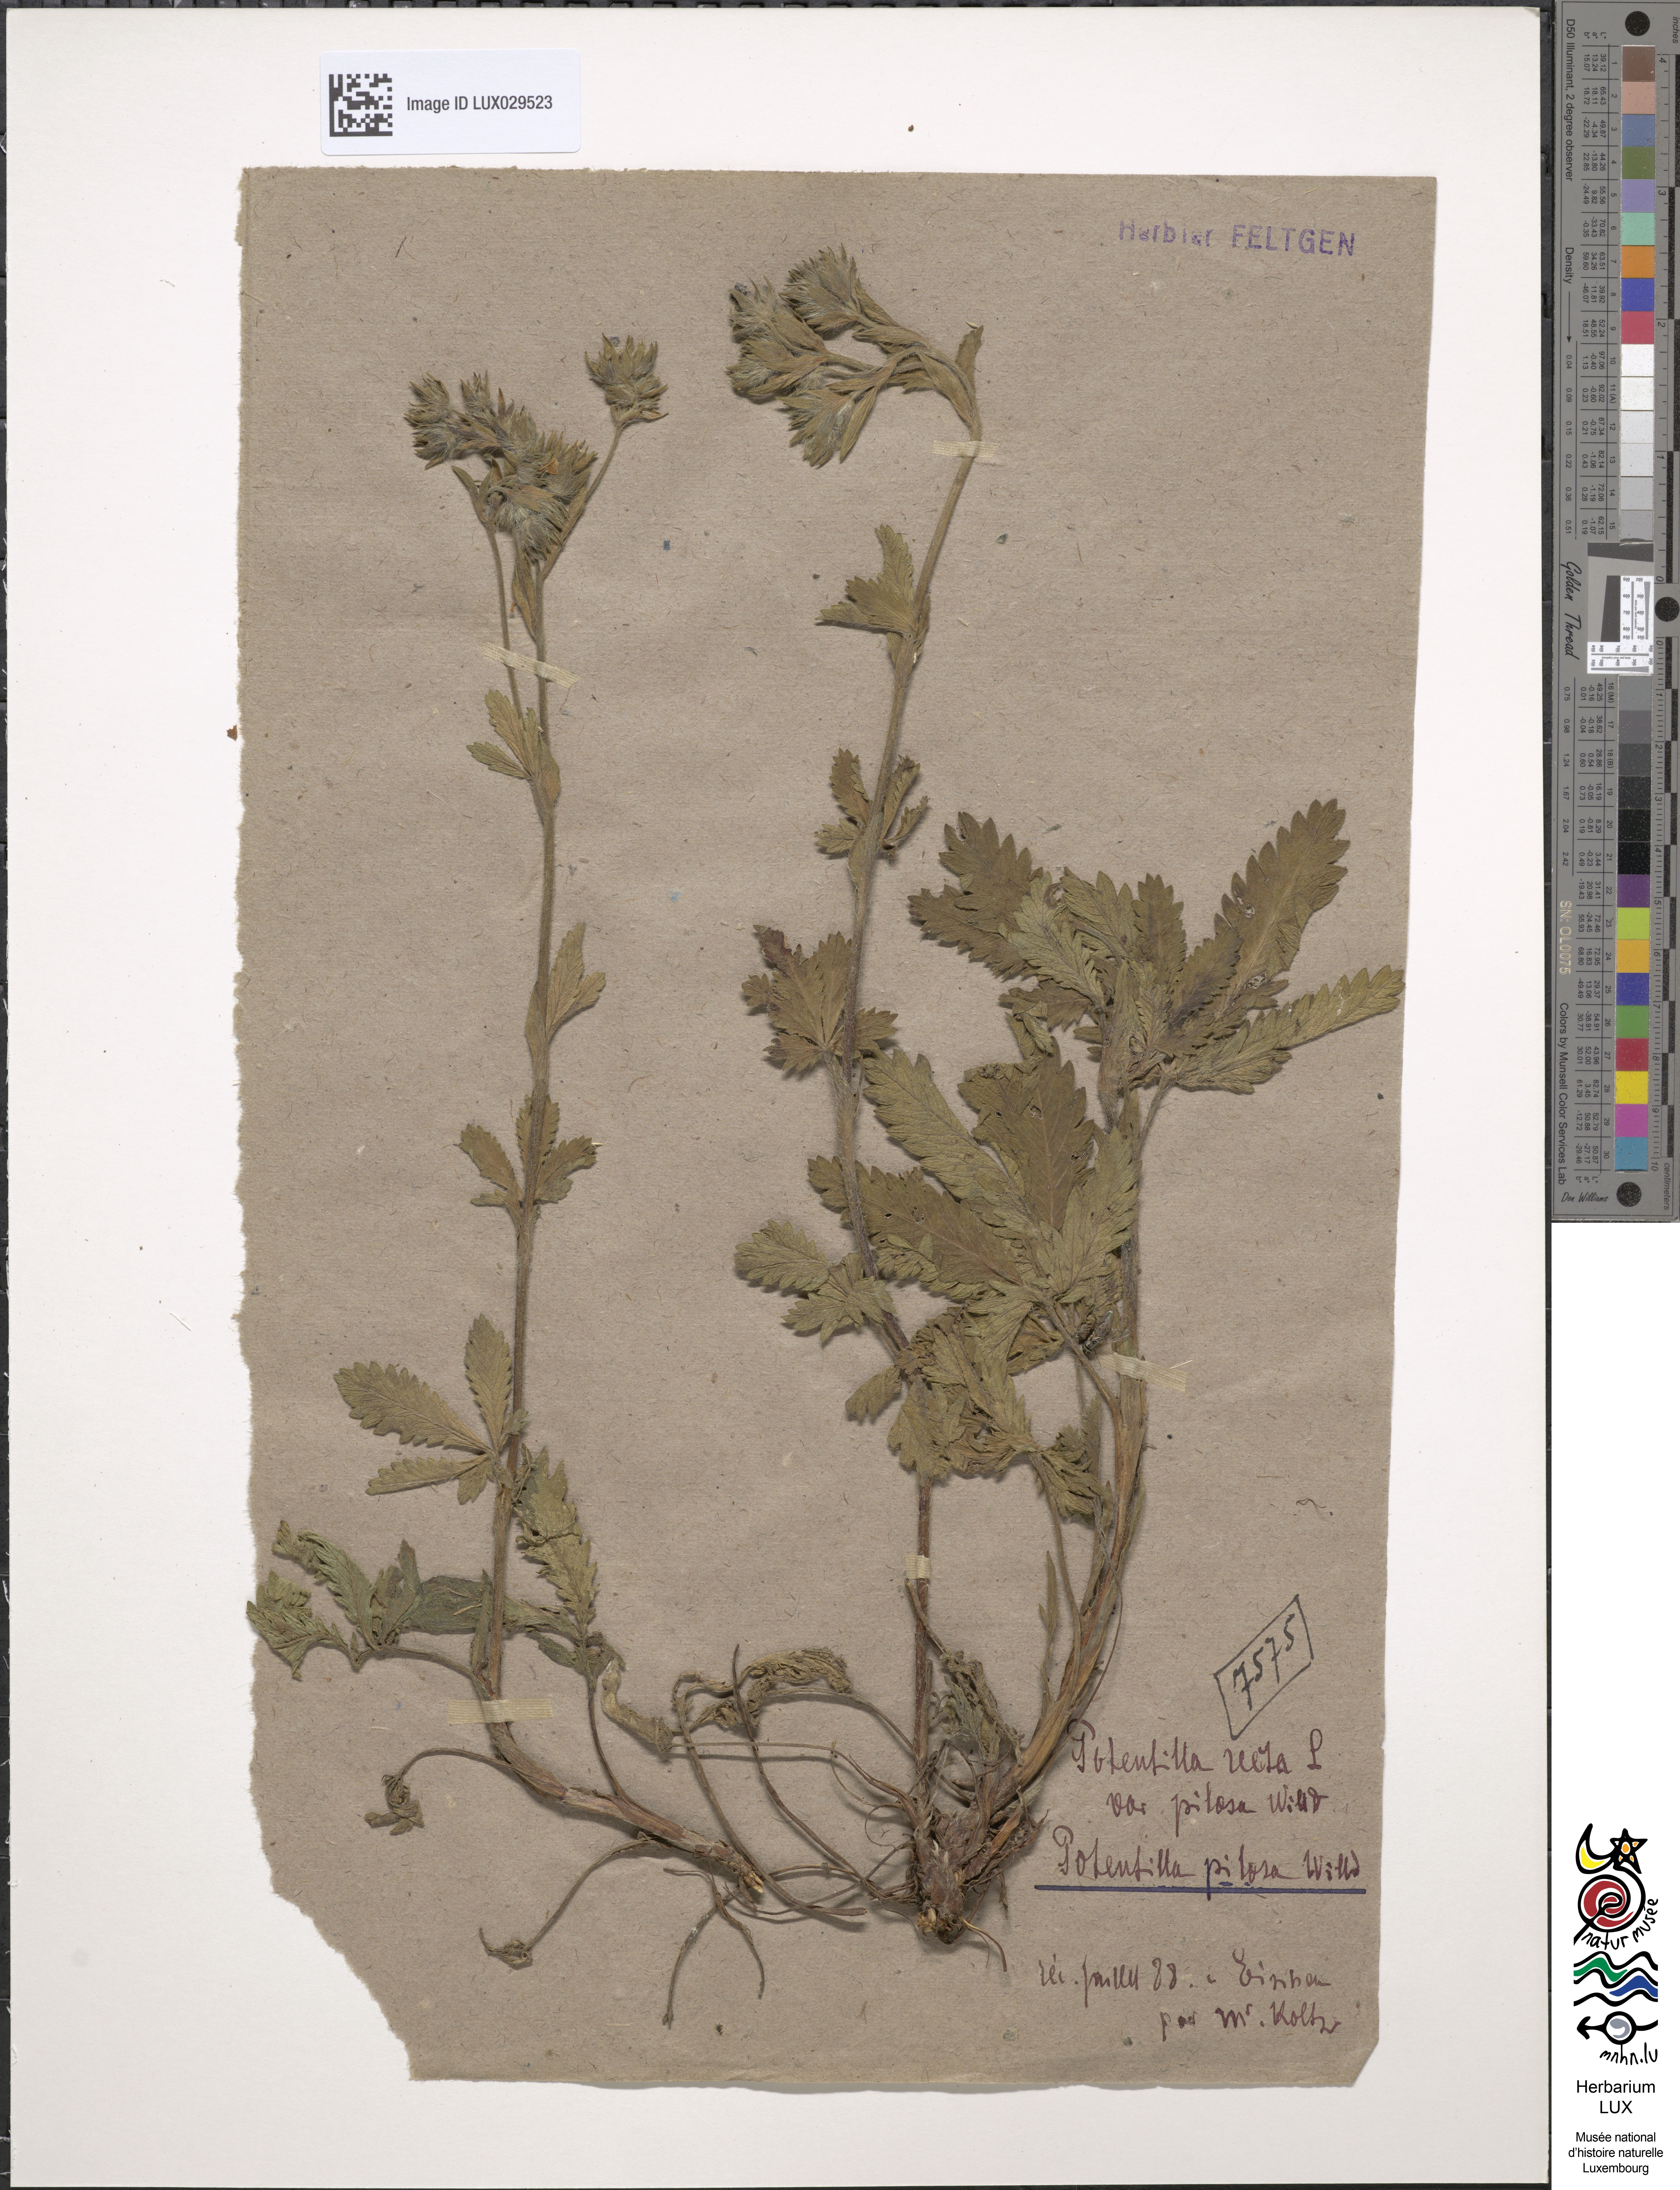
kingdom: Plantae
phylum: Tracheophyta
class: Magnoliopsida
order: Rosales
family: Rosaceae
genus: Potentilla
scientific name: Potentilla recta
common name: Sulphur cinquefoil
